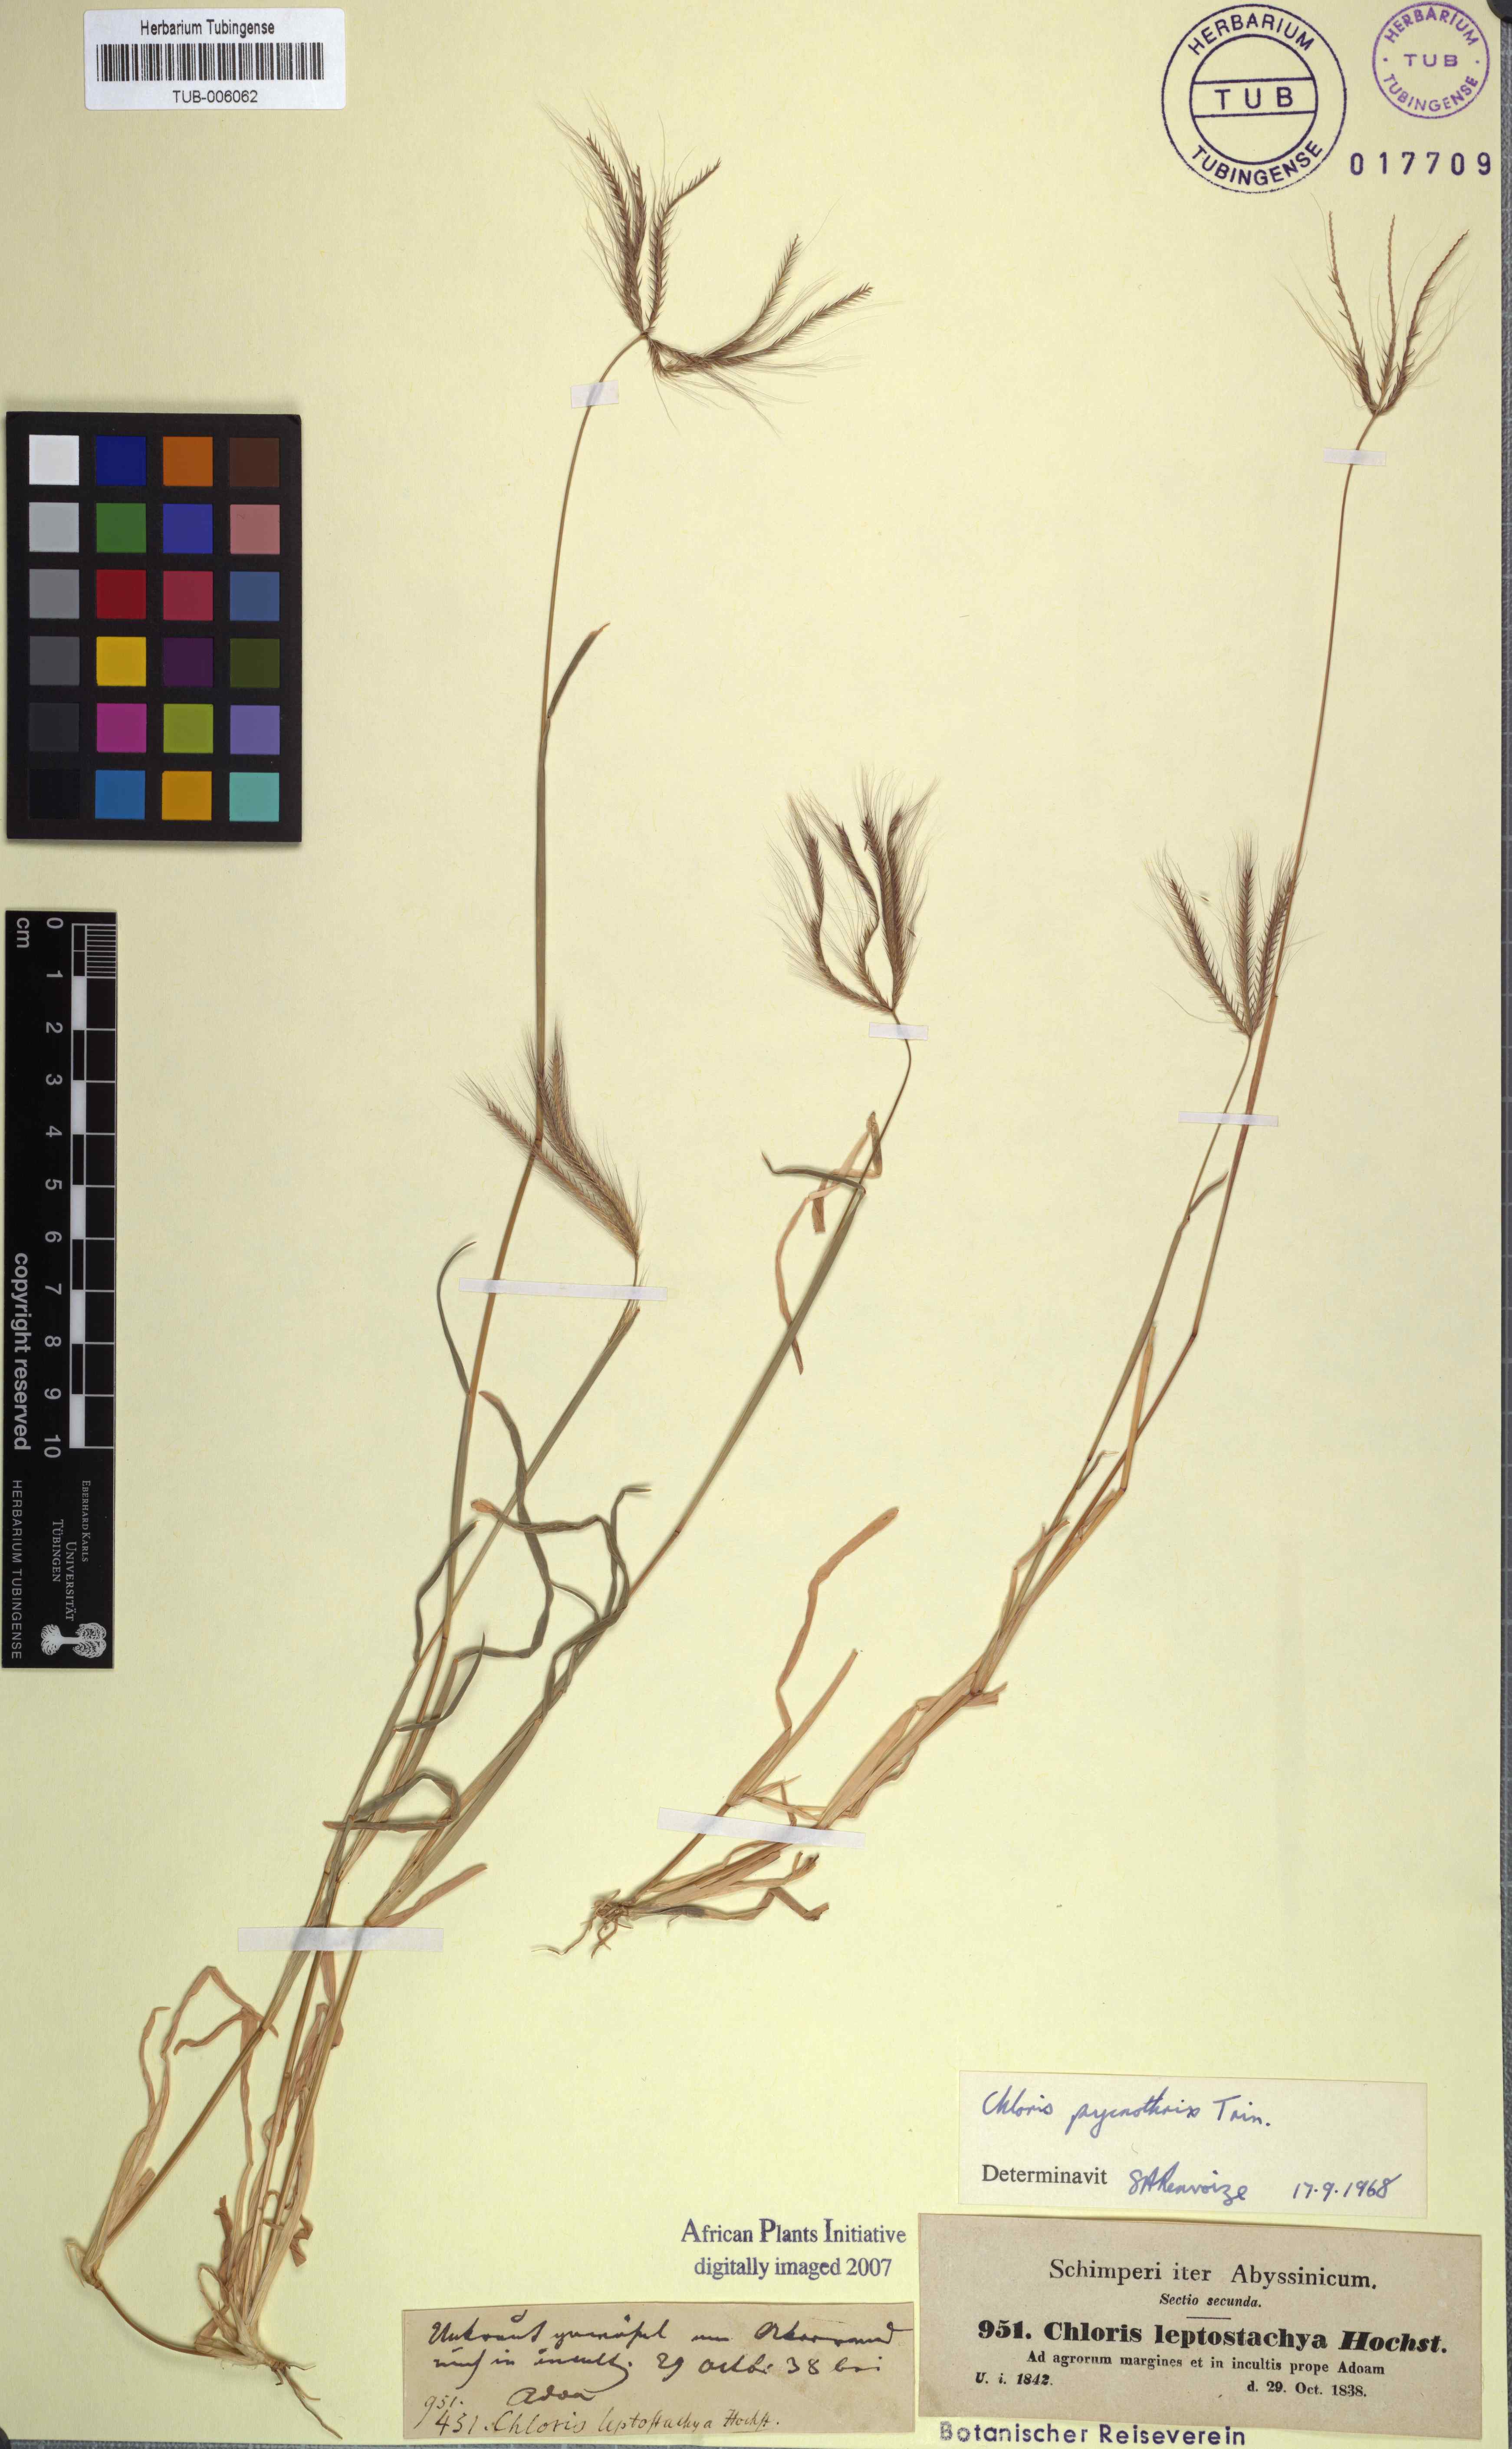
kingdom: Plantae
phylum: Tracheophyta
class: Liliopsida
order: Poales
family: Poaceae
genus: Chloris
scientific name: Chloris pycnothrix
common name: Spiderweb chloris
